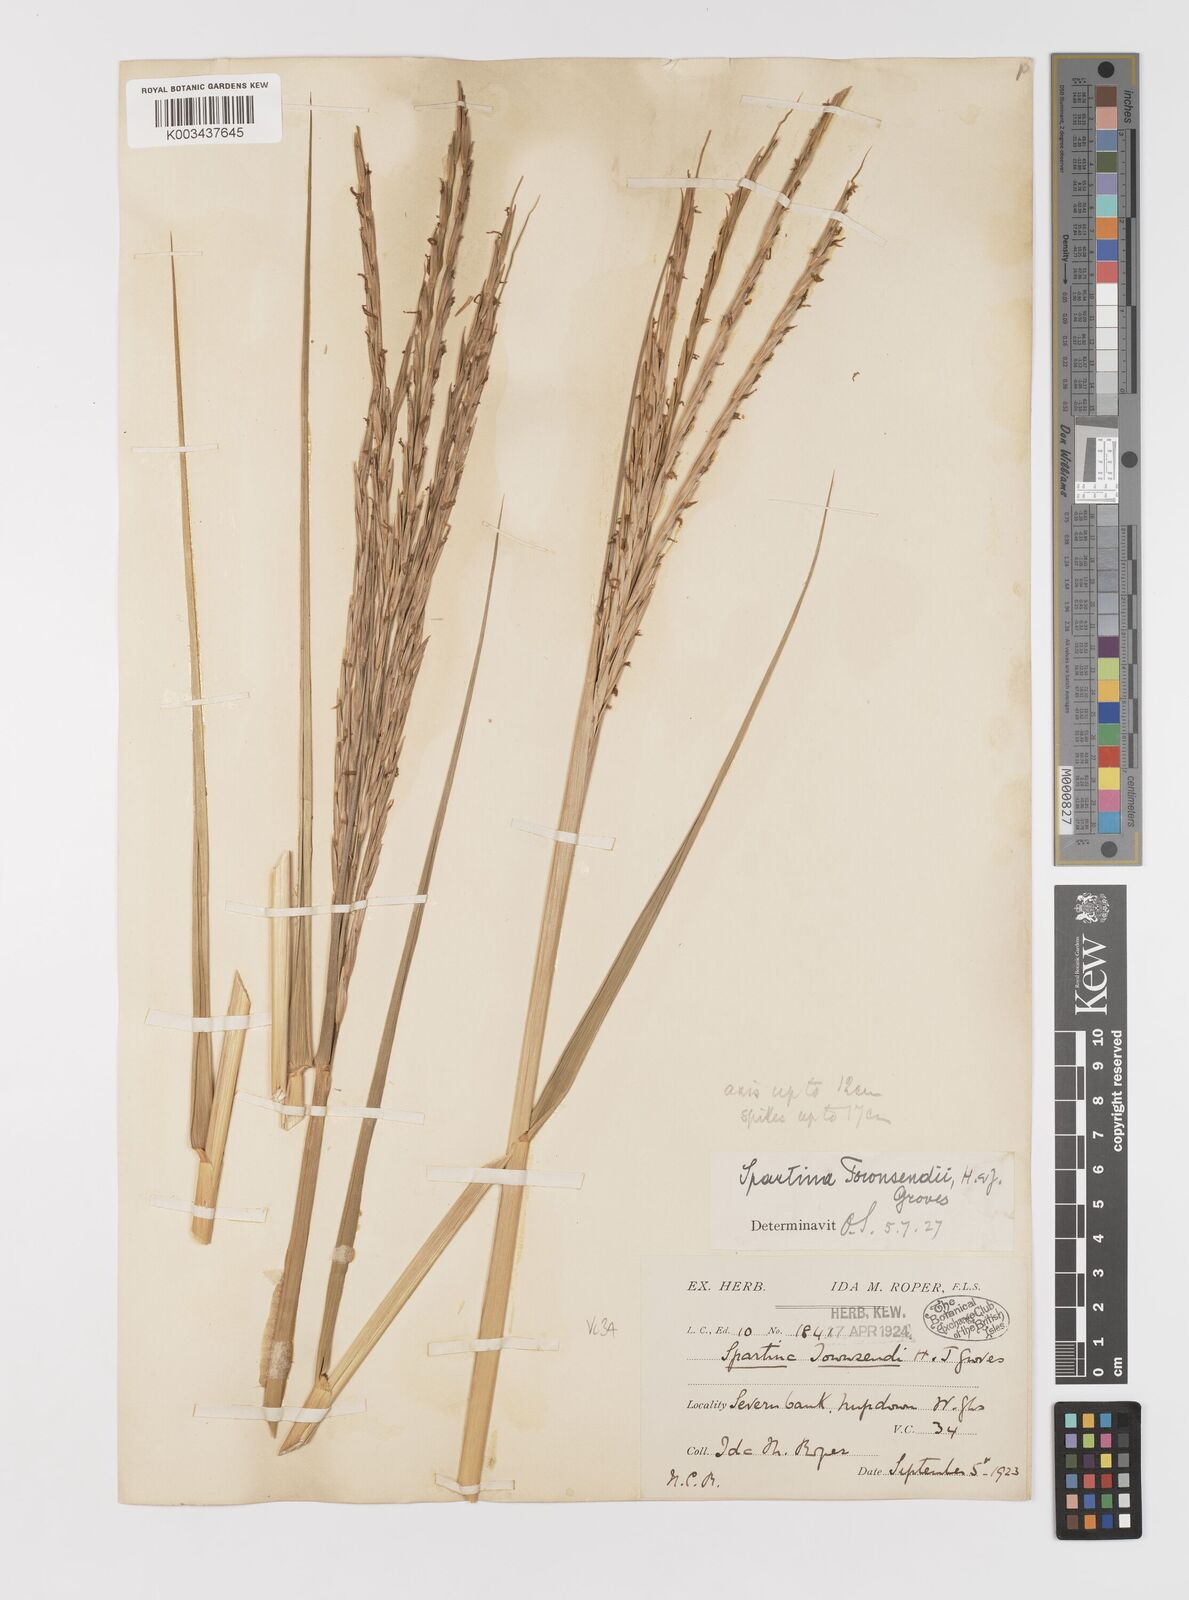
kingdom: Plantae
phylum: Tracheophyta
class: Liliopsida
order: Poales
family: Poaceae
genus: Sporobolus
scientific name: Sporobolus anglicus
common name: English cordgrass
